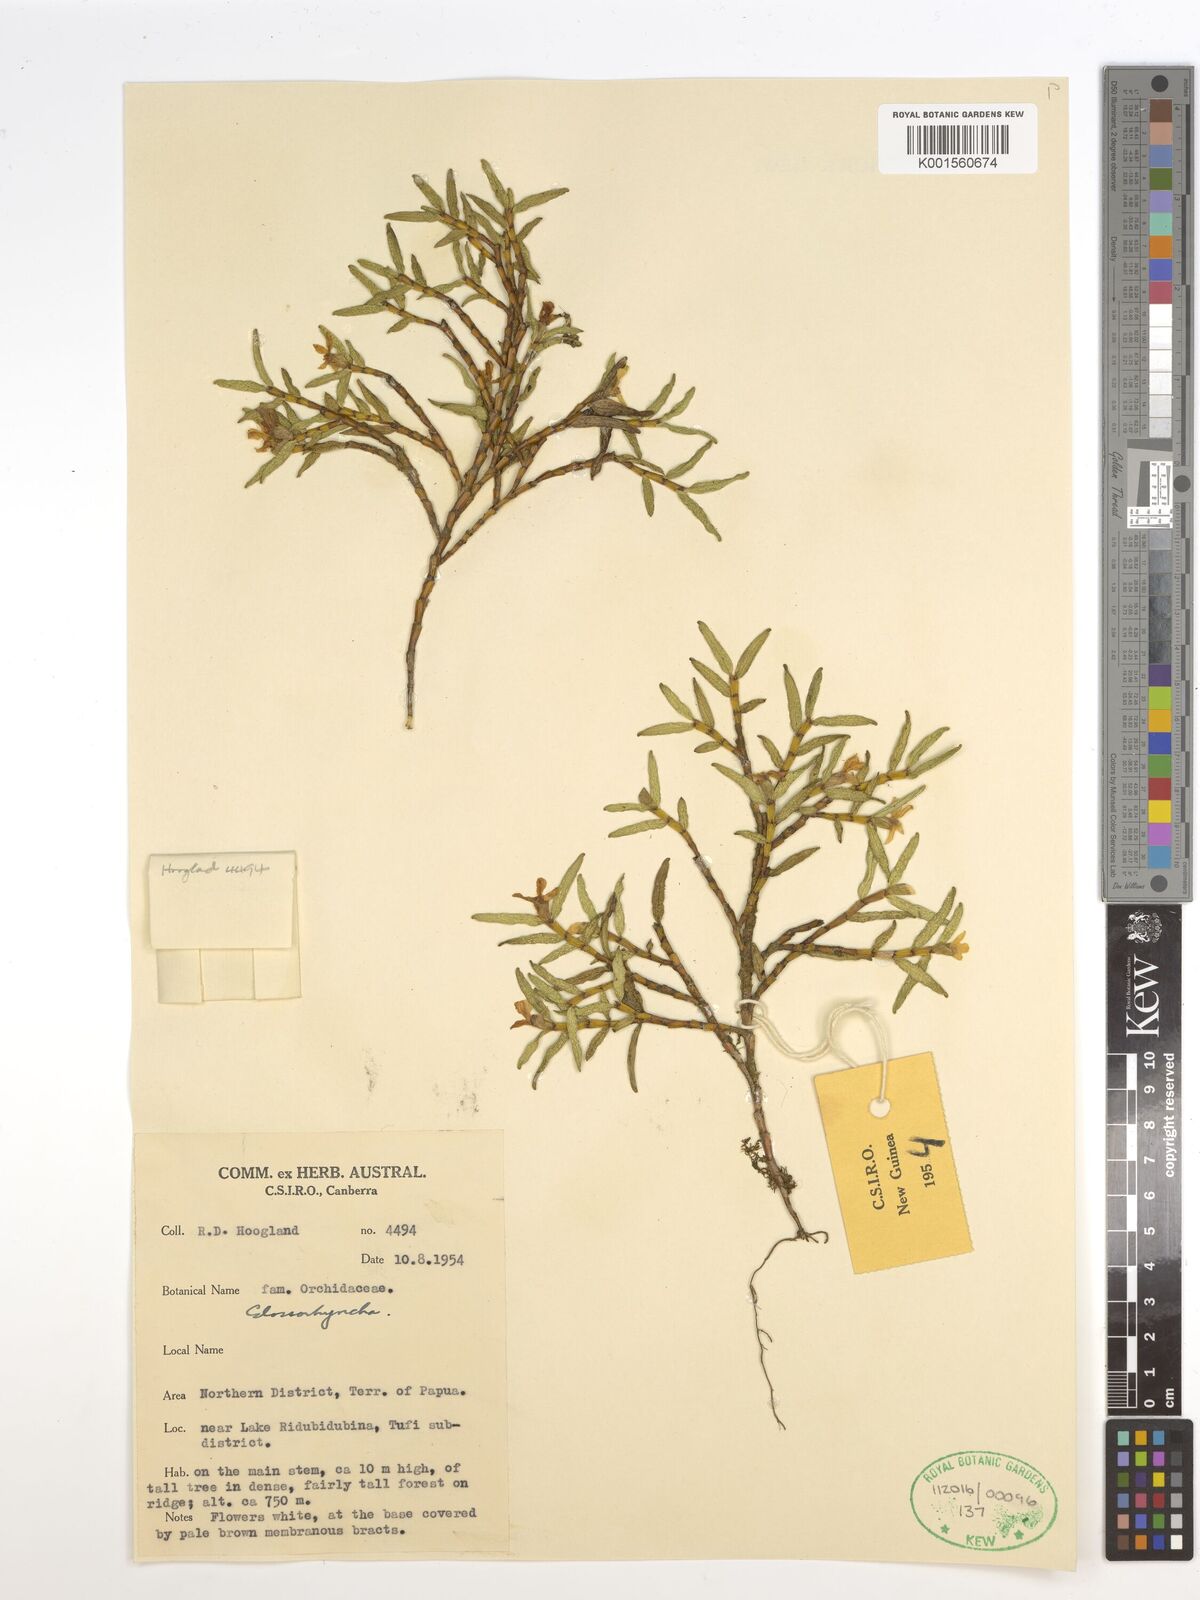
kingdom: Plantae
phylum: Tracheophyta
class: Liliopsida
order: Asparagales
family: Orchidaceae
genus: Glomera
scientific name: Glomera
